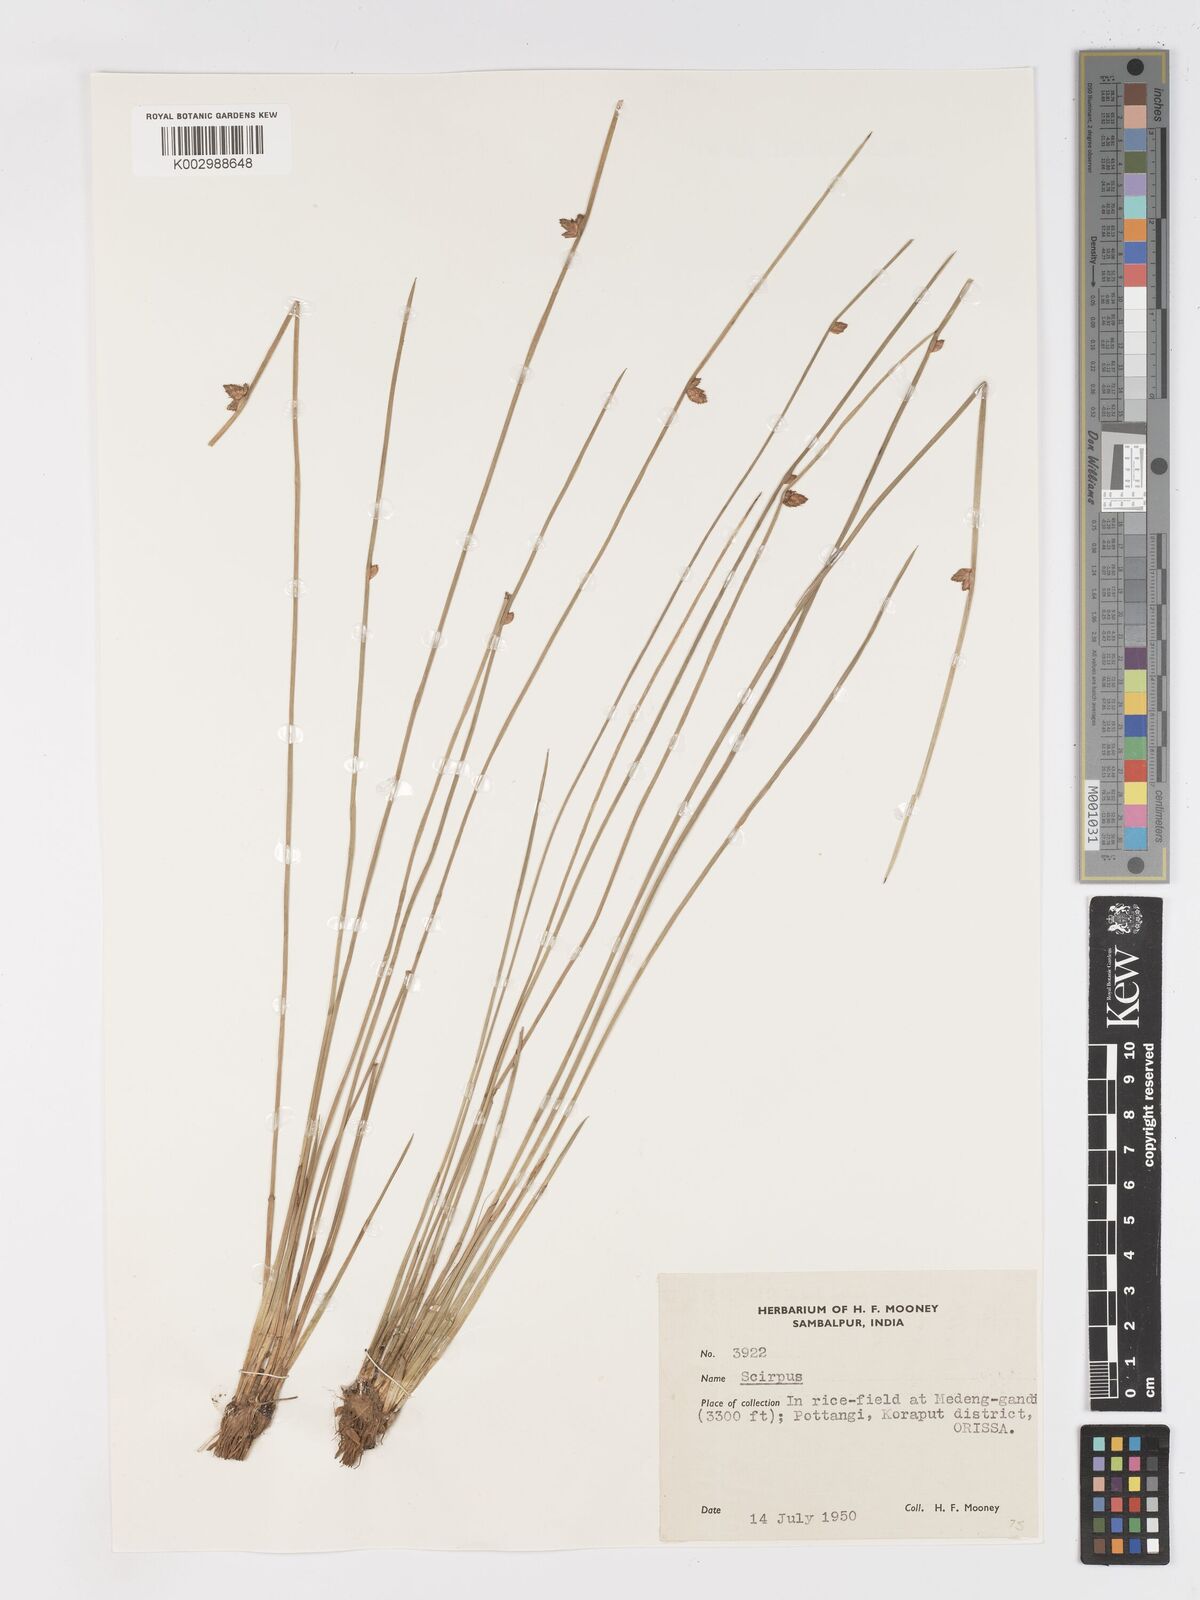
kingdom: Plantae
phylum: Tracheophyta
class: Liliopsida
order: Poales
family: Cyperaceae
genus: Schoenoplectiella
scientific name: Schoenoplectiella juncoides
